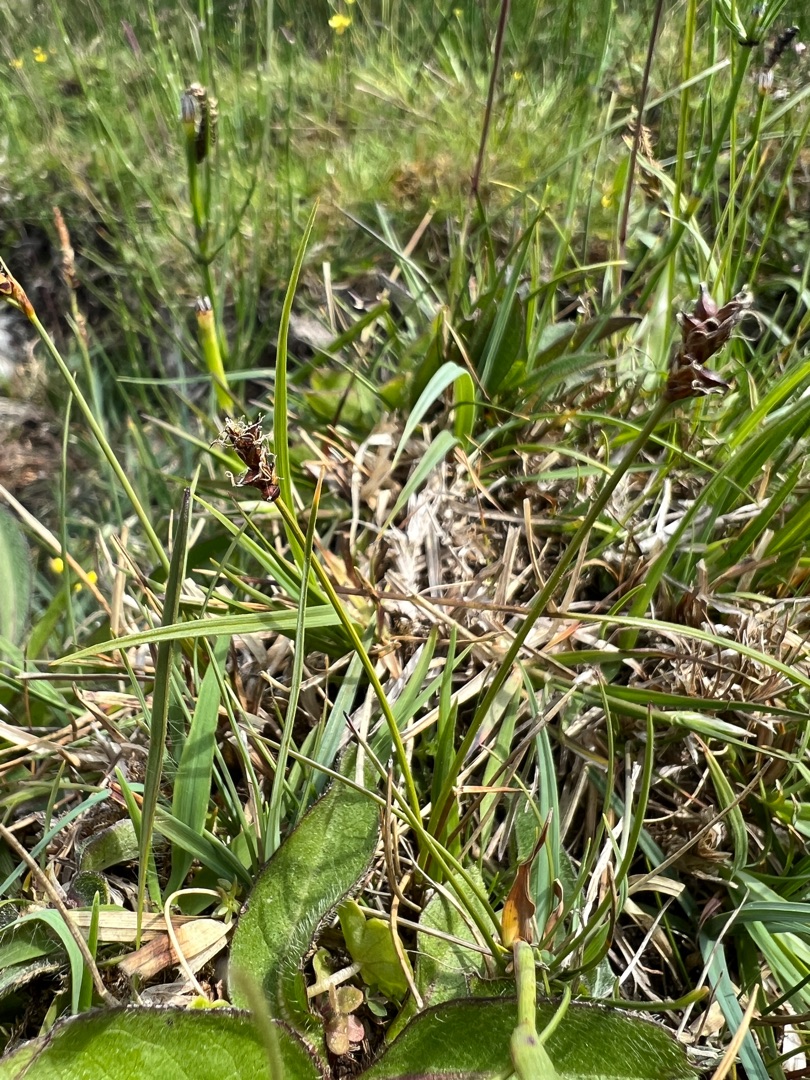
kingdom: Plantae
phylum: Tracheophyta
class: Liliopsida
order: Poales
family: Cyperaceae
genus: Carex
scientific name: Carex dioica
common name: Tvebo star
